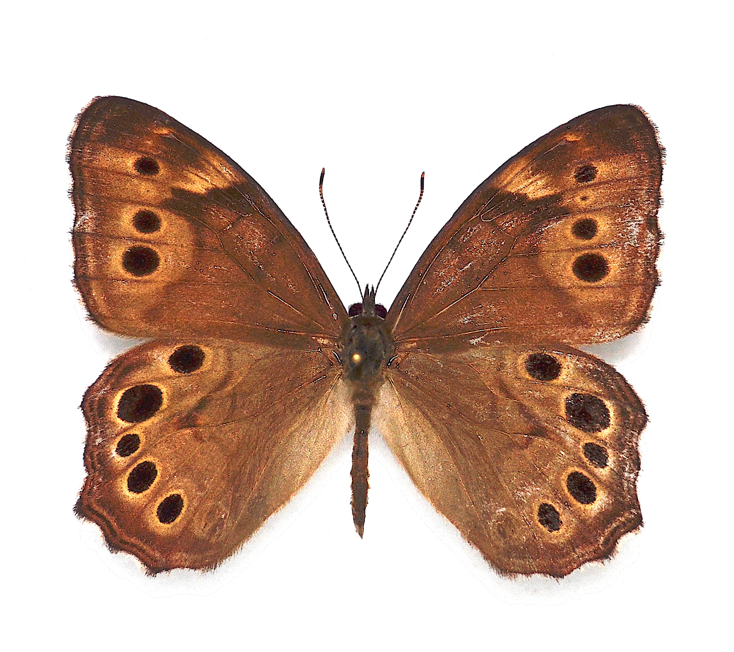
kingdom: Animalia
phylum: Arthropoda
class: Insecta
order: Lepidoptera
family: Nymphalidae
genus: Lethe
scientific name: Lethe anthedon
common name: Northern Pearly-Eye
